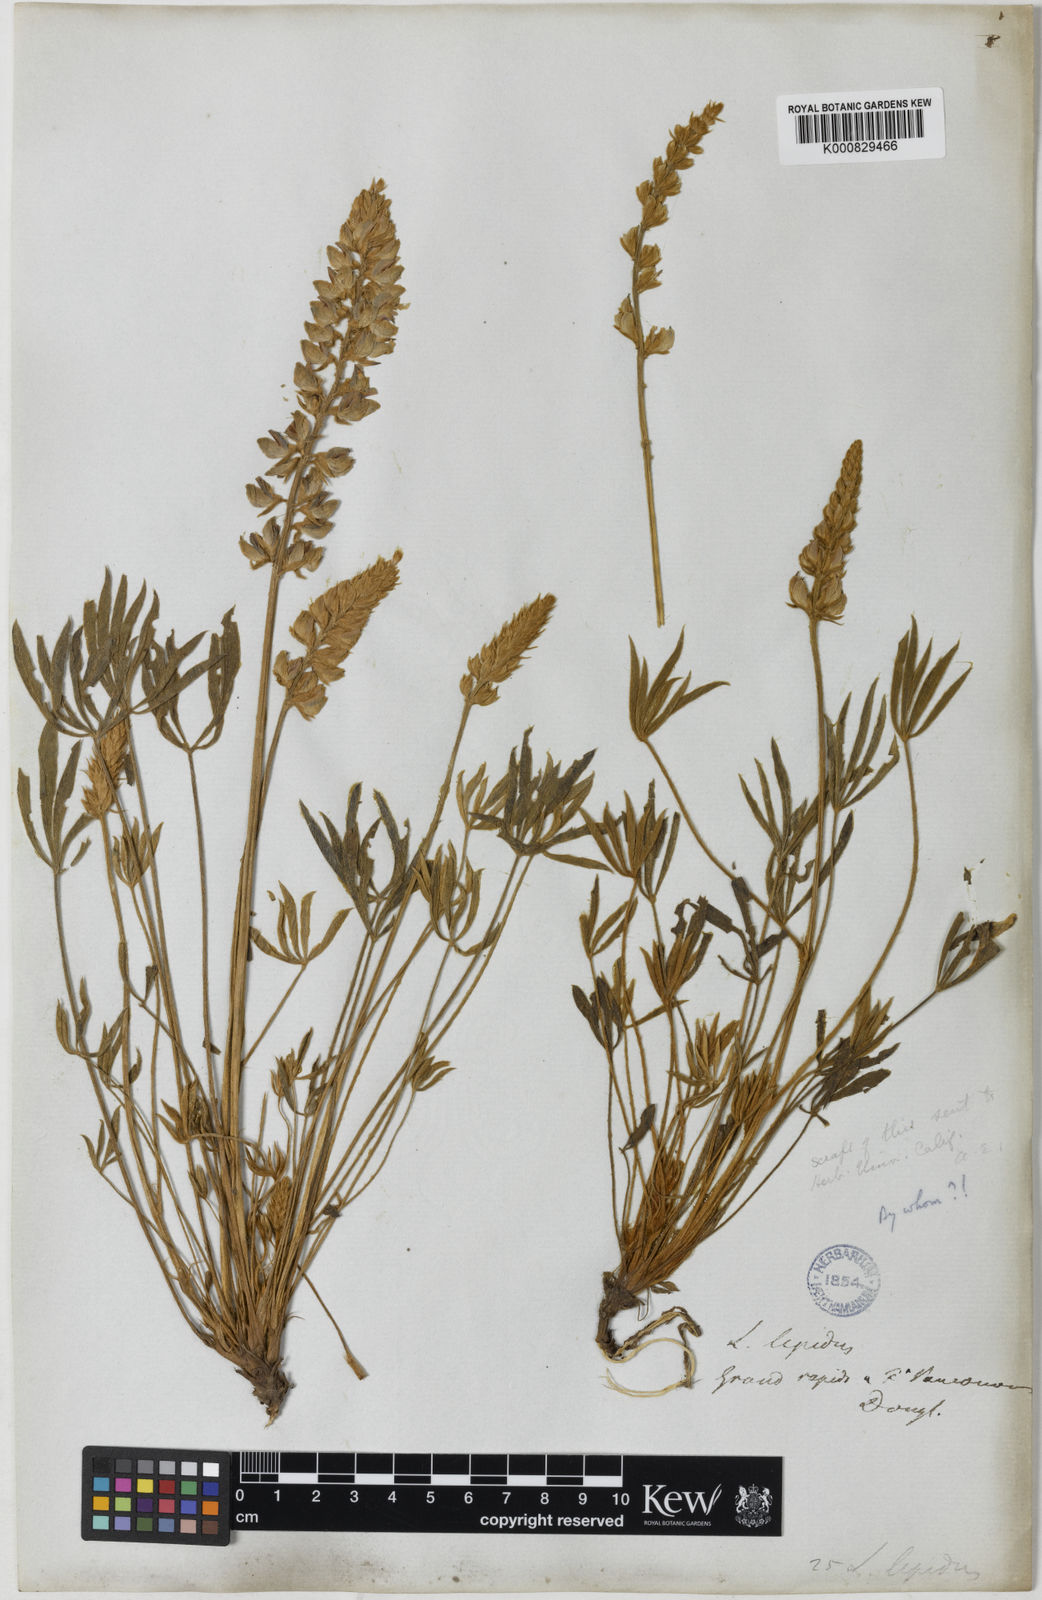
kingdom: Plantae
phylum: Tracheophyta
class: Magnoliopsida
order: Fabales
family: Fabaceae
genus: Lupinus
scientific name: Lupinus lepidus
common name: Prairie lupine
